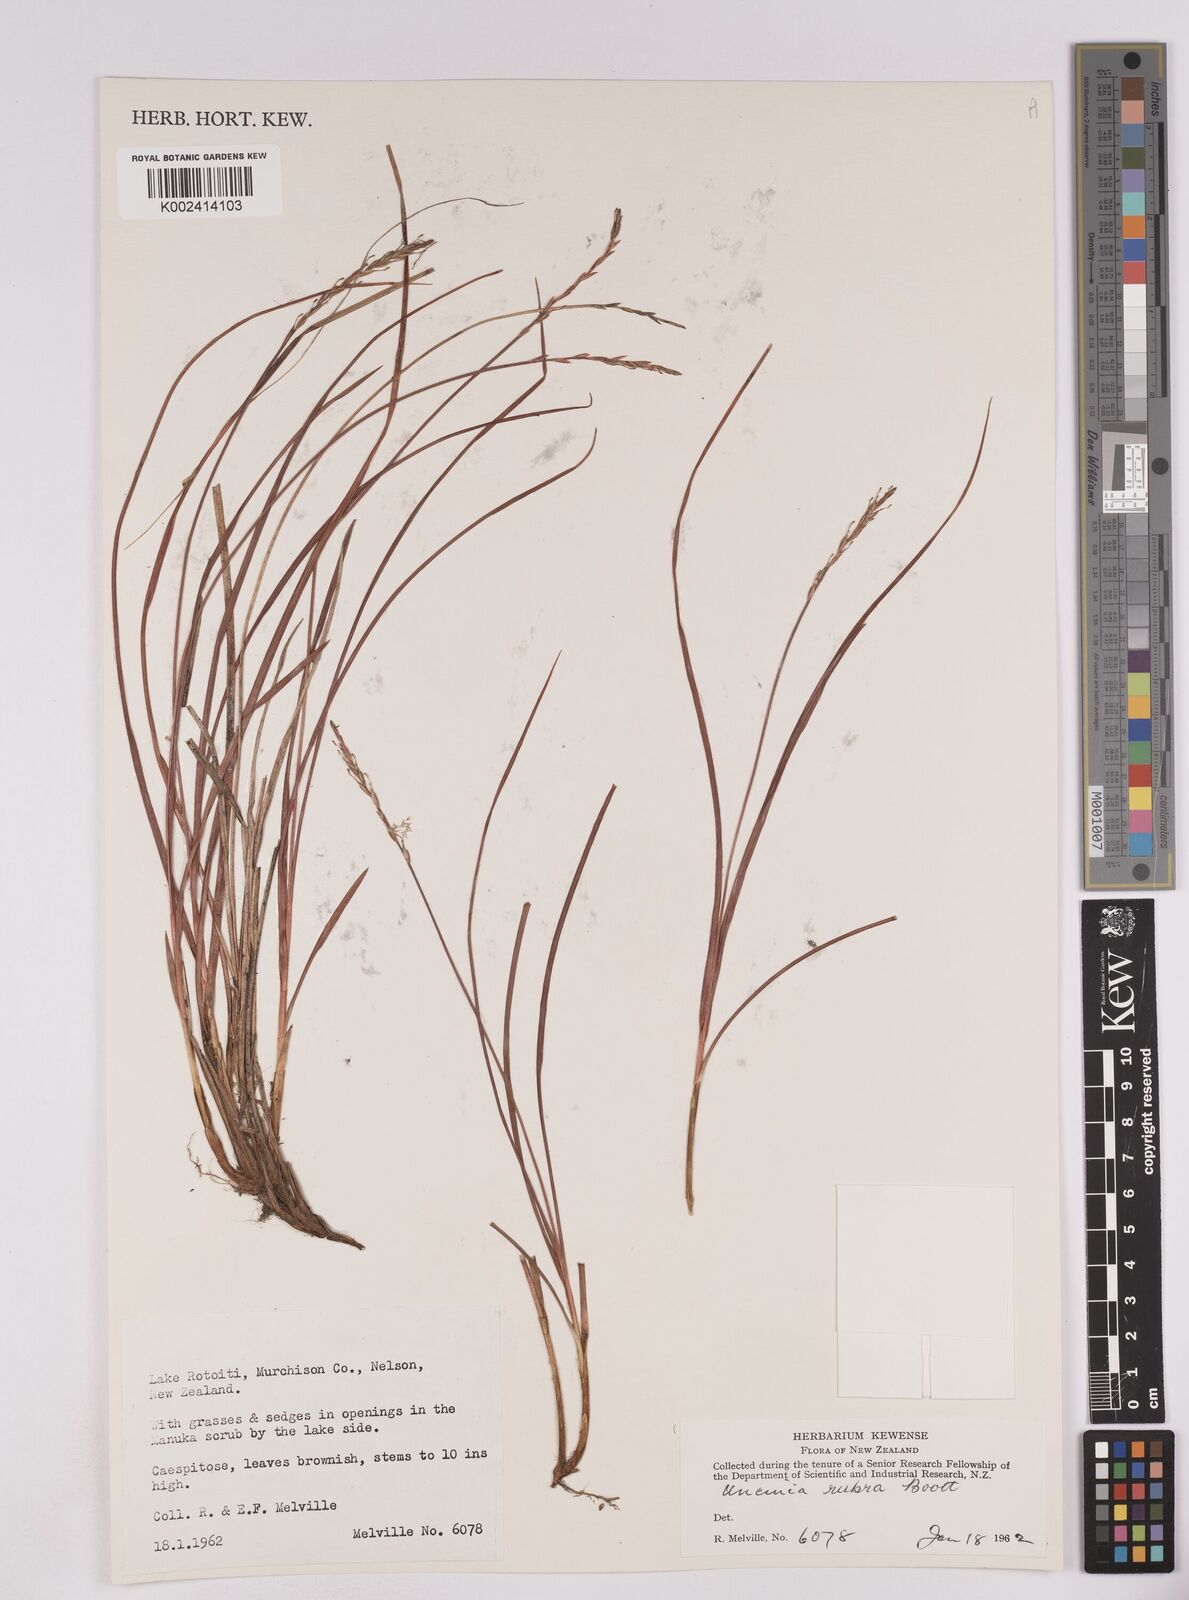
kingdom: Plantae
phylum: Tracheophyta
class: Liliopsida
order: Poales
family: Cyperaceae
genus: Carex
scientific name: Carex punicea
